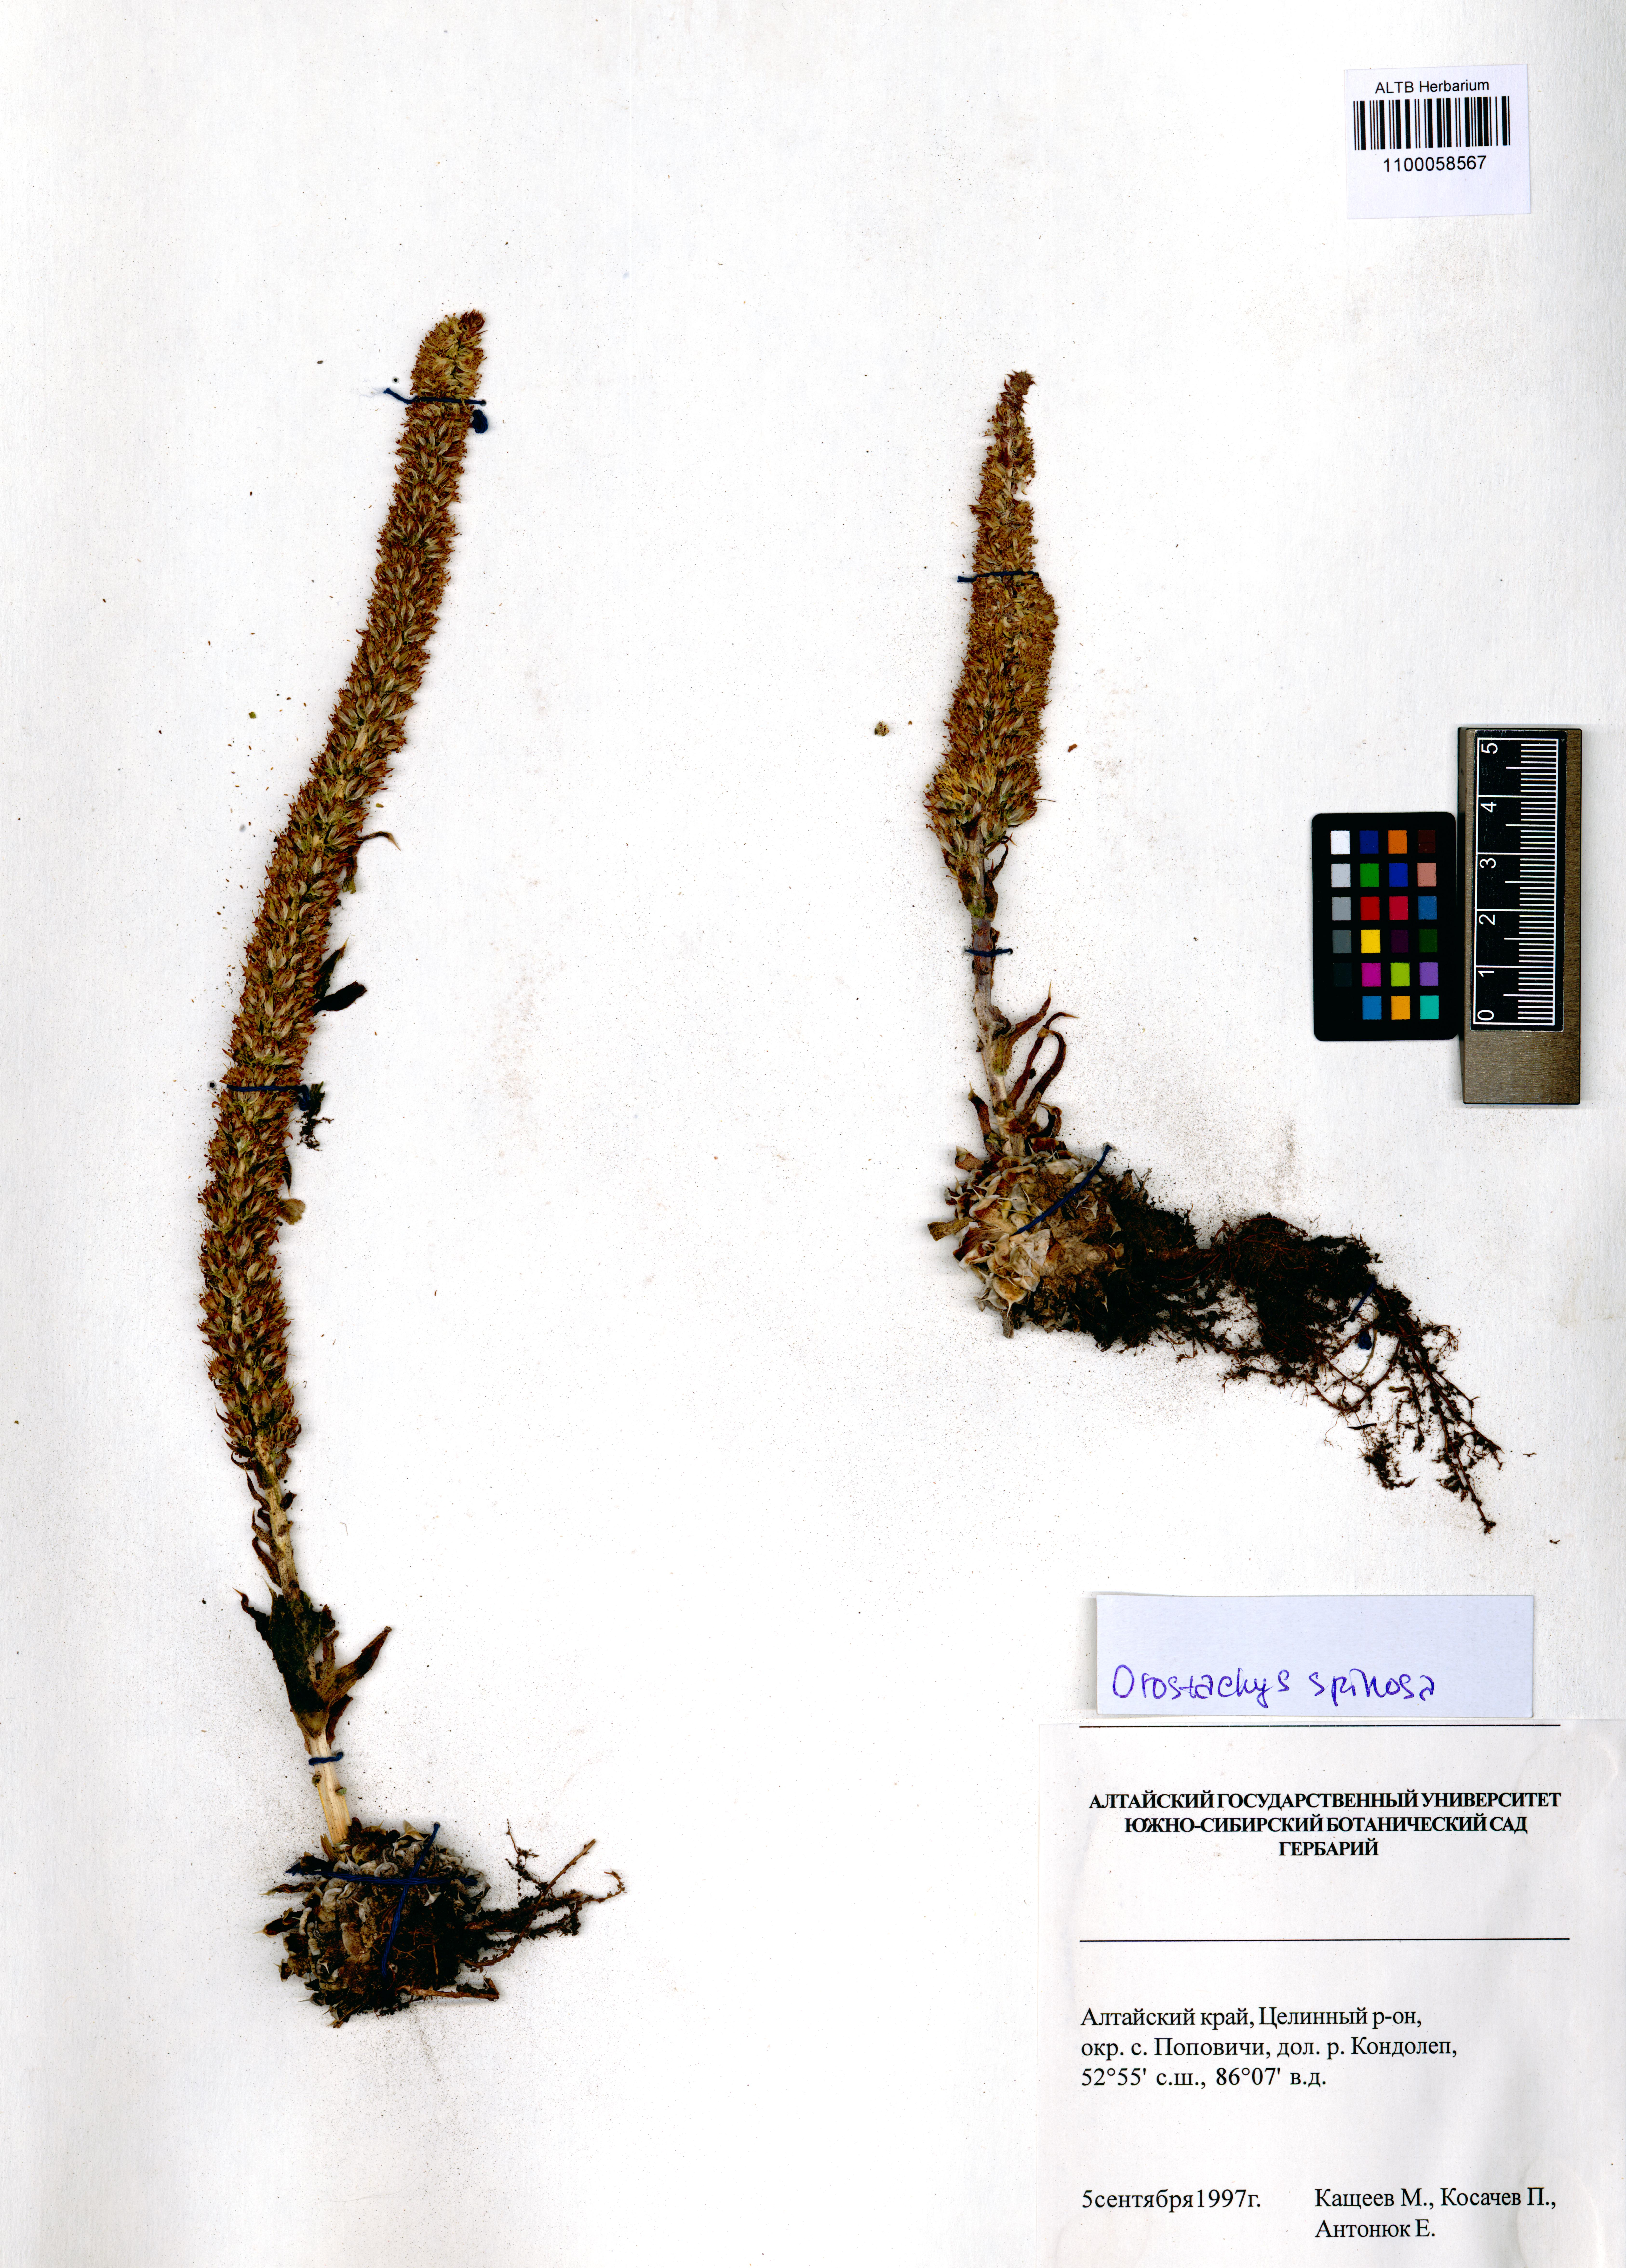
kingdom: Plantae
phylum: Tracheophyta
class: Magnoliopsida
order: Saxifragales
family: Crassulaceae
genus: Orostachys
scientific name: Orostachys spinosa
